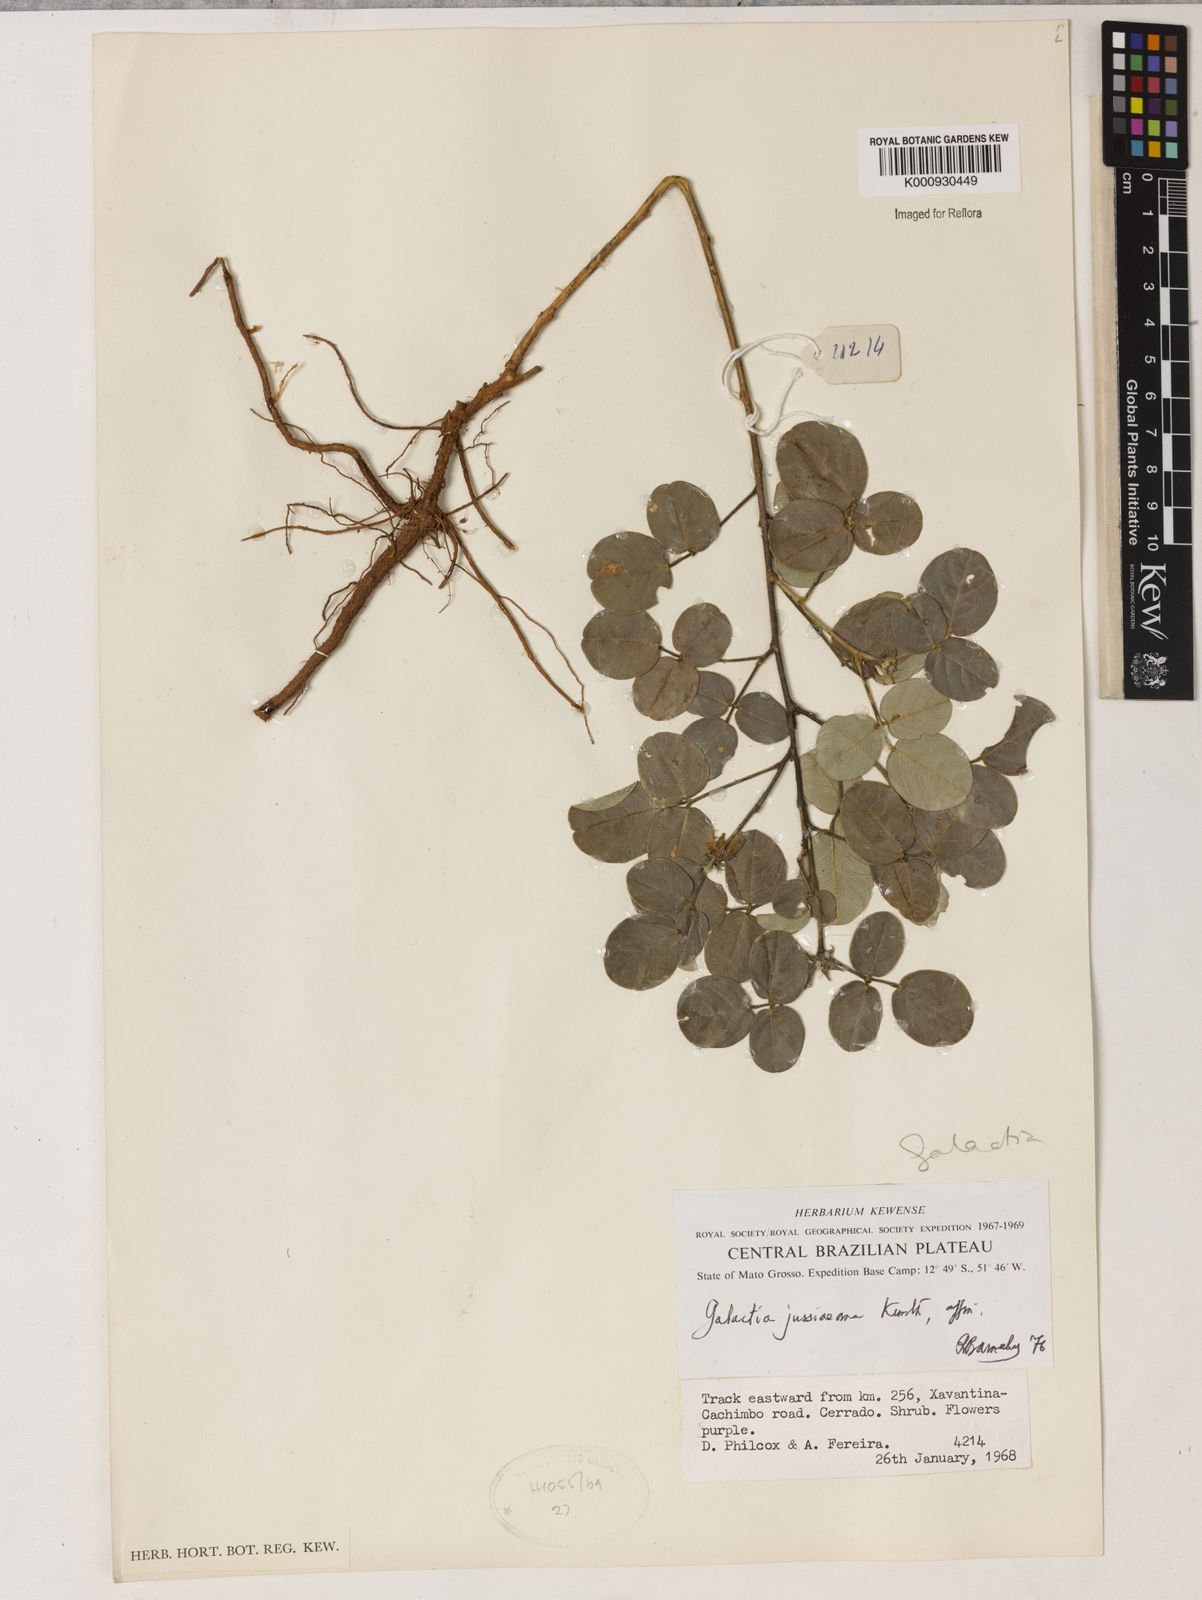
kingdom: Plantae
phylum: Tracheophyta
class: Magnoliopsida
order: Fabales
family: Fabaceae
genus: Galactia
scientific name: Galactia jussiaeana
